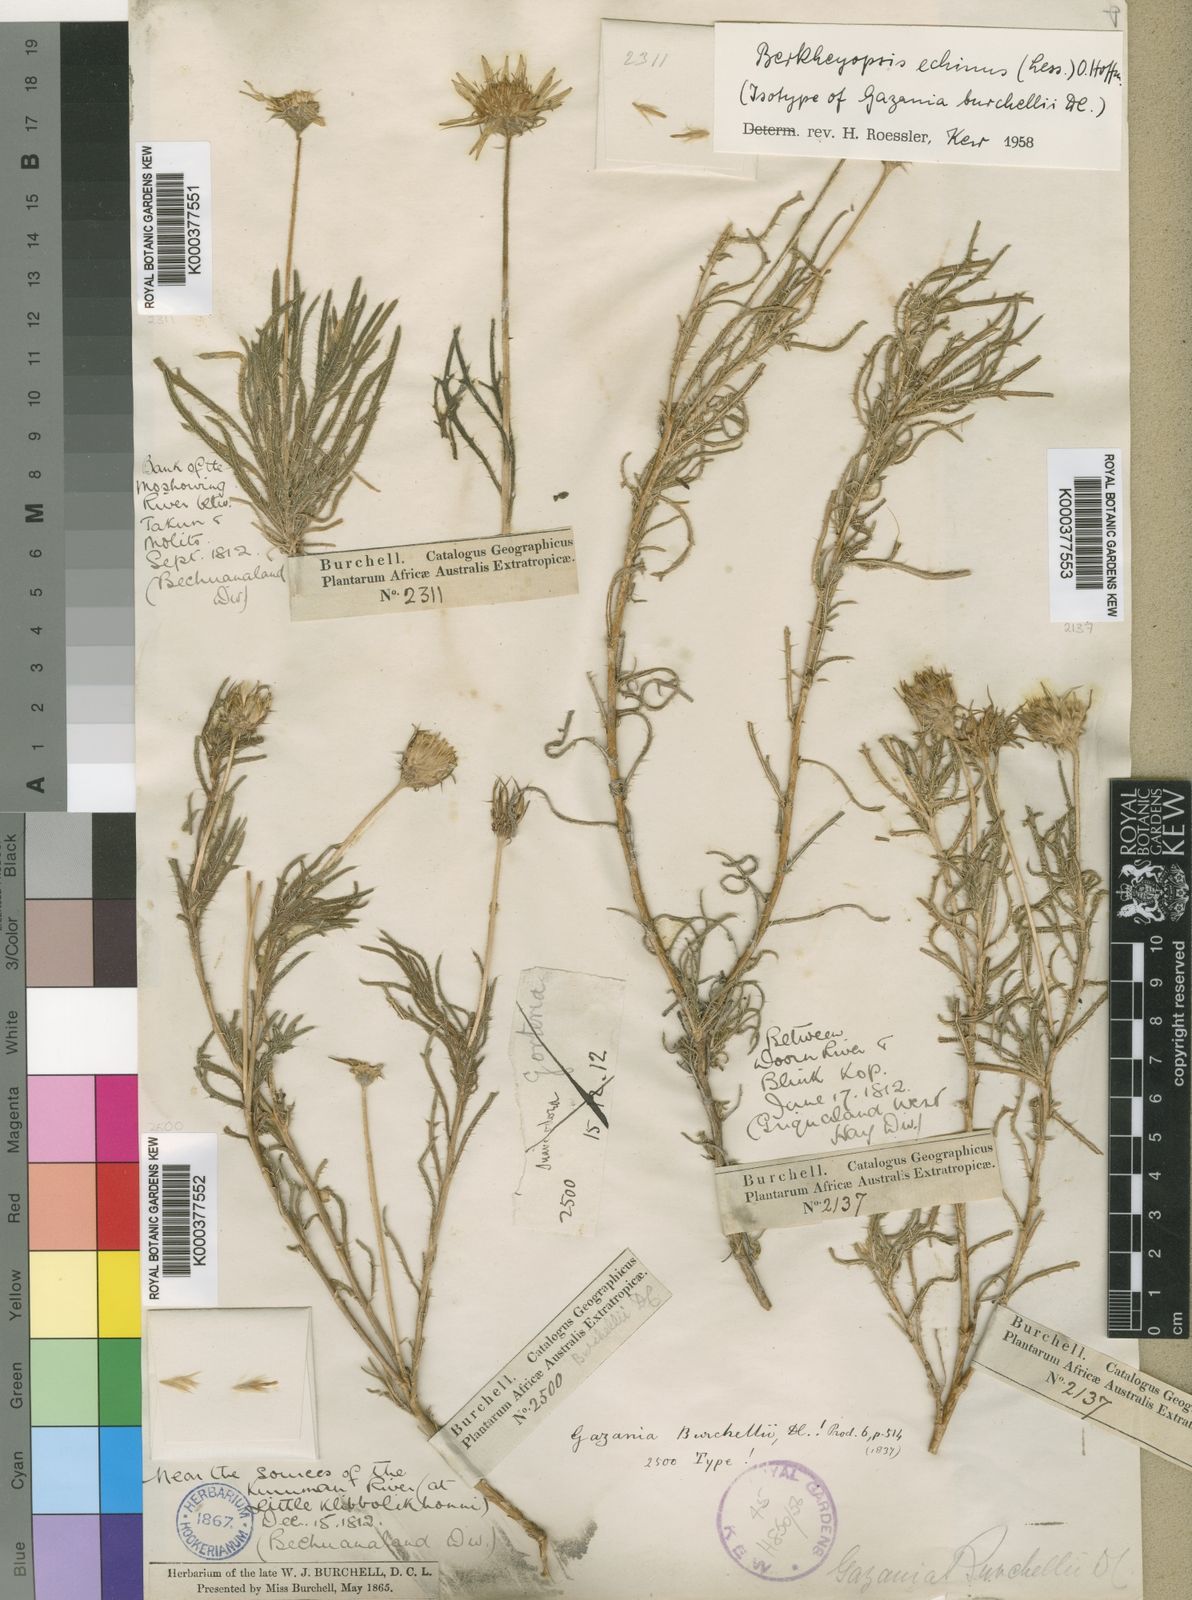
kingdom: Plantae
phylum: Tracheophyta
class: Magnoliopsida
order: Asterales
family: Asteraceae
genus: Hirpicium
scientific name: Hirpicium echinus
